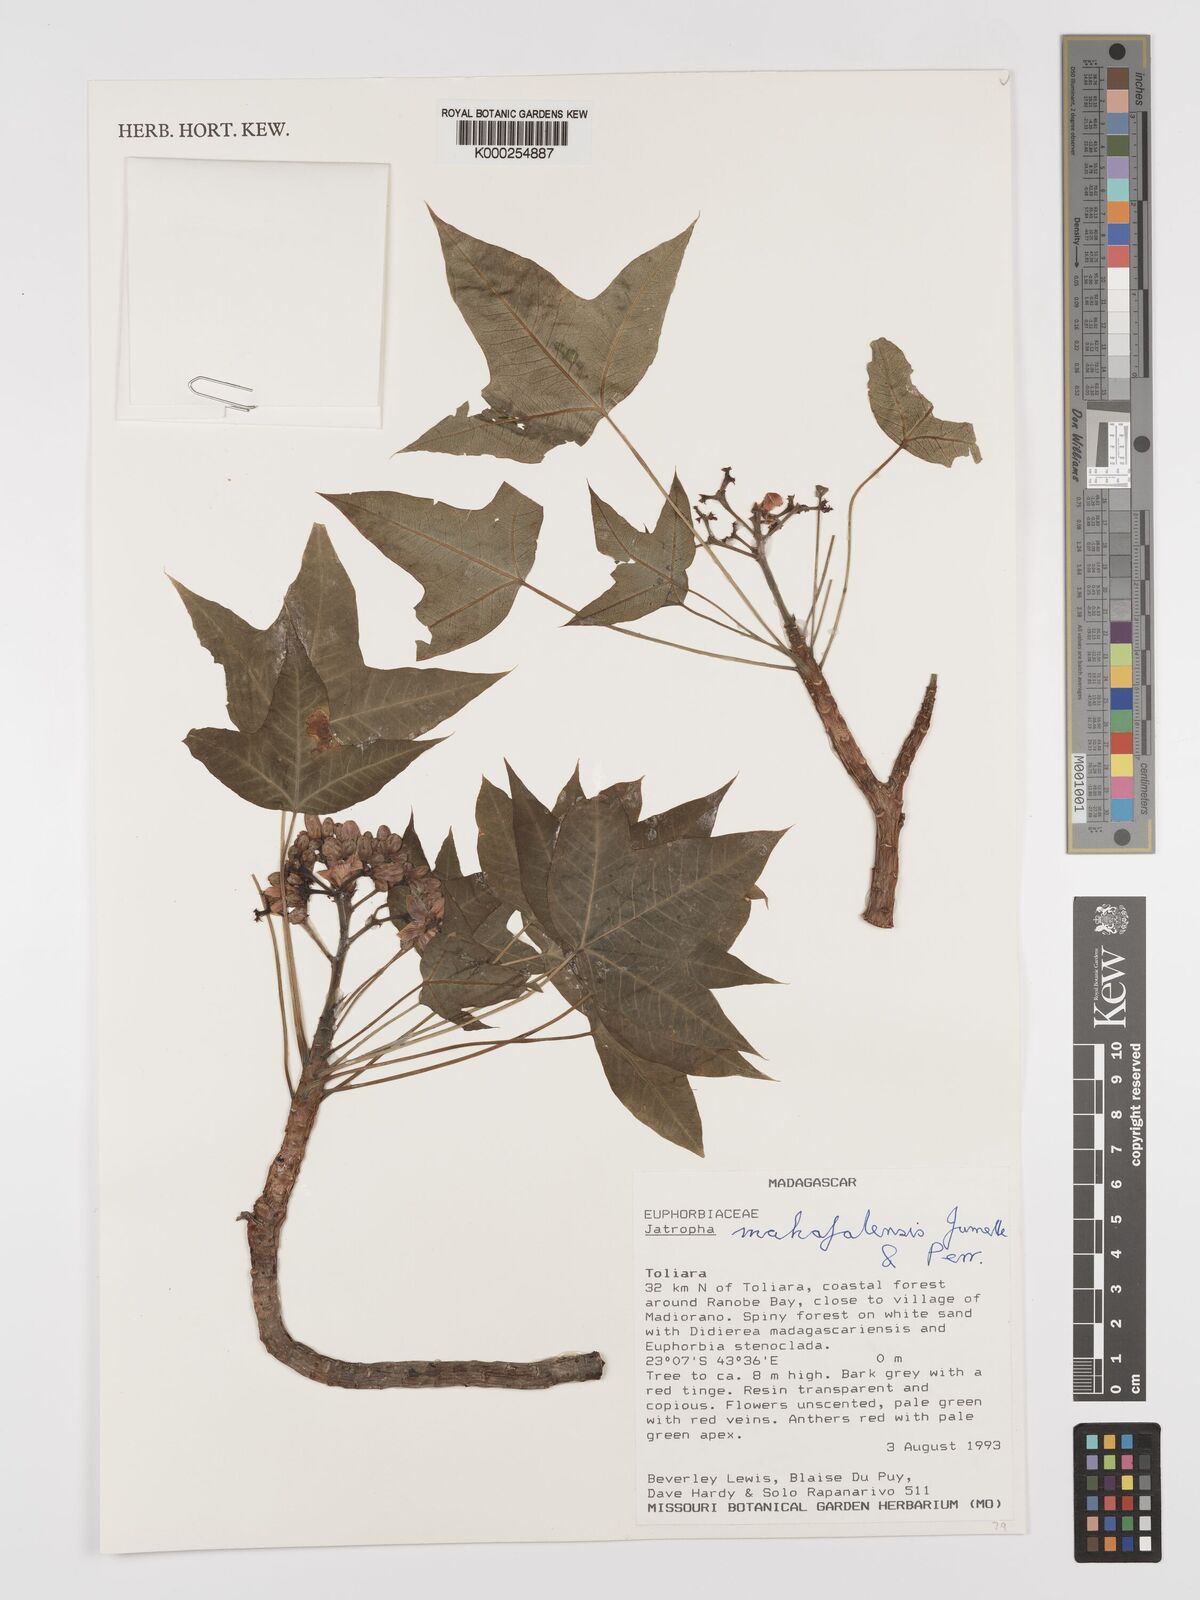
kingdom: Plantae
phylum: Tracheophyta
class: Magnoliopsida
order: Malpighiales
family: Euphorbiaceae
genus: Jatropha
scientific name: Jatropha mahafalensis
